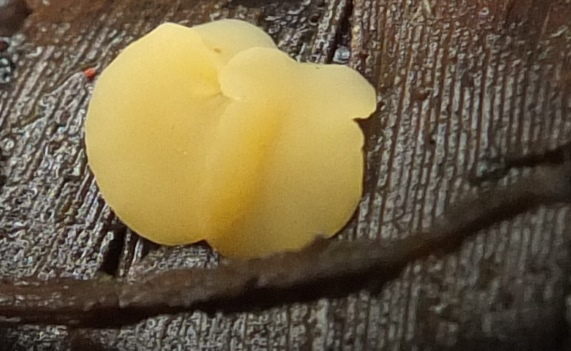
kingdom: Fungi
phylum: Ascomycota
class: Leotiomycetes
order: Helotiales
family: Pezizellaceae
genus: Rodwayella
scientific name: Rodwayella citrinula
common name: sump-gulskive
